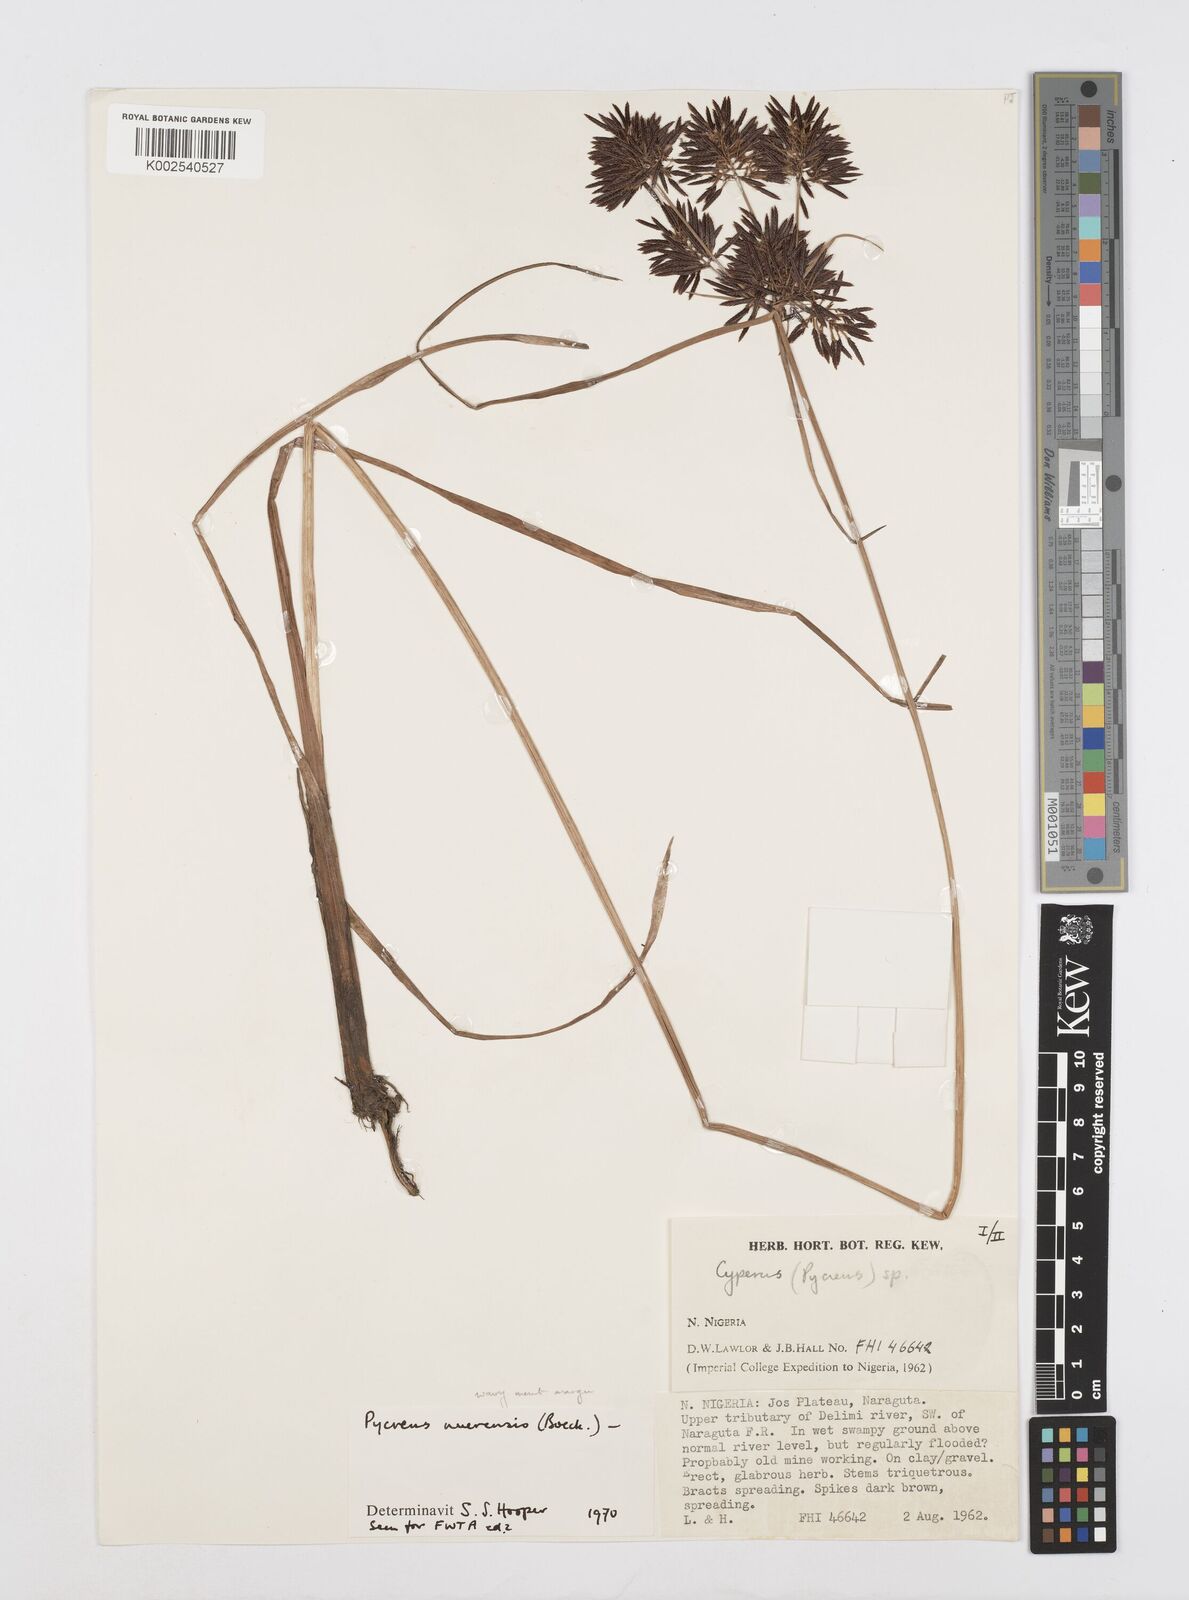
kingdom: Plantae
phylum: Tracheophyta
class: Liliopsida
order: Poales
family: Cyperaceae
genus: Cyperus
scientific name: Cyperus nuerensis
